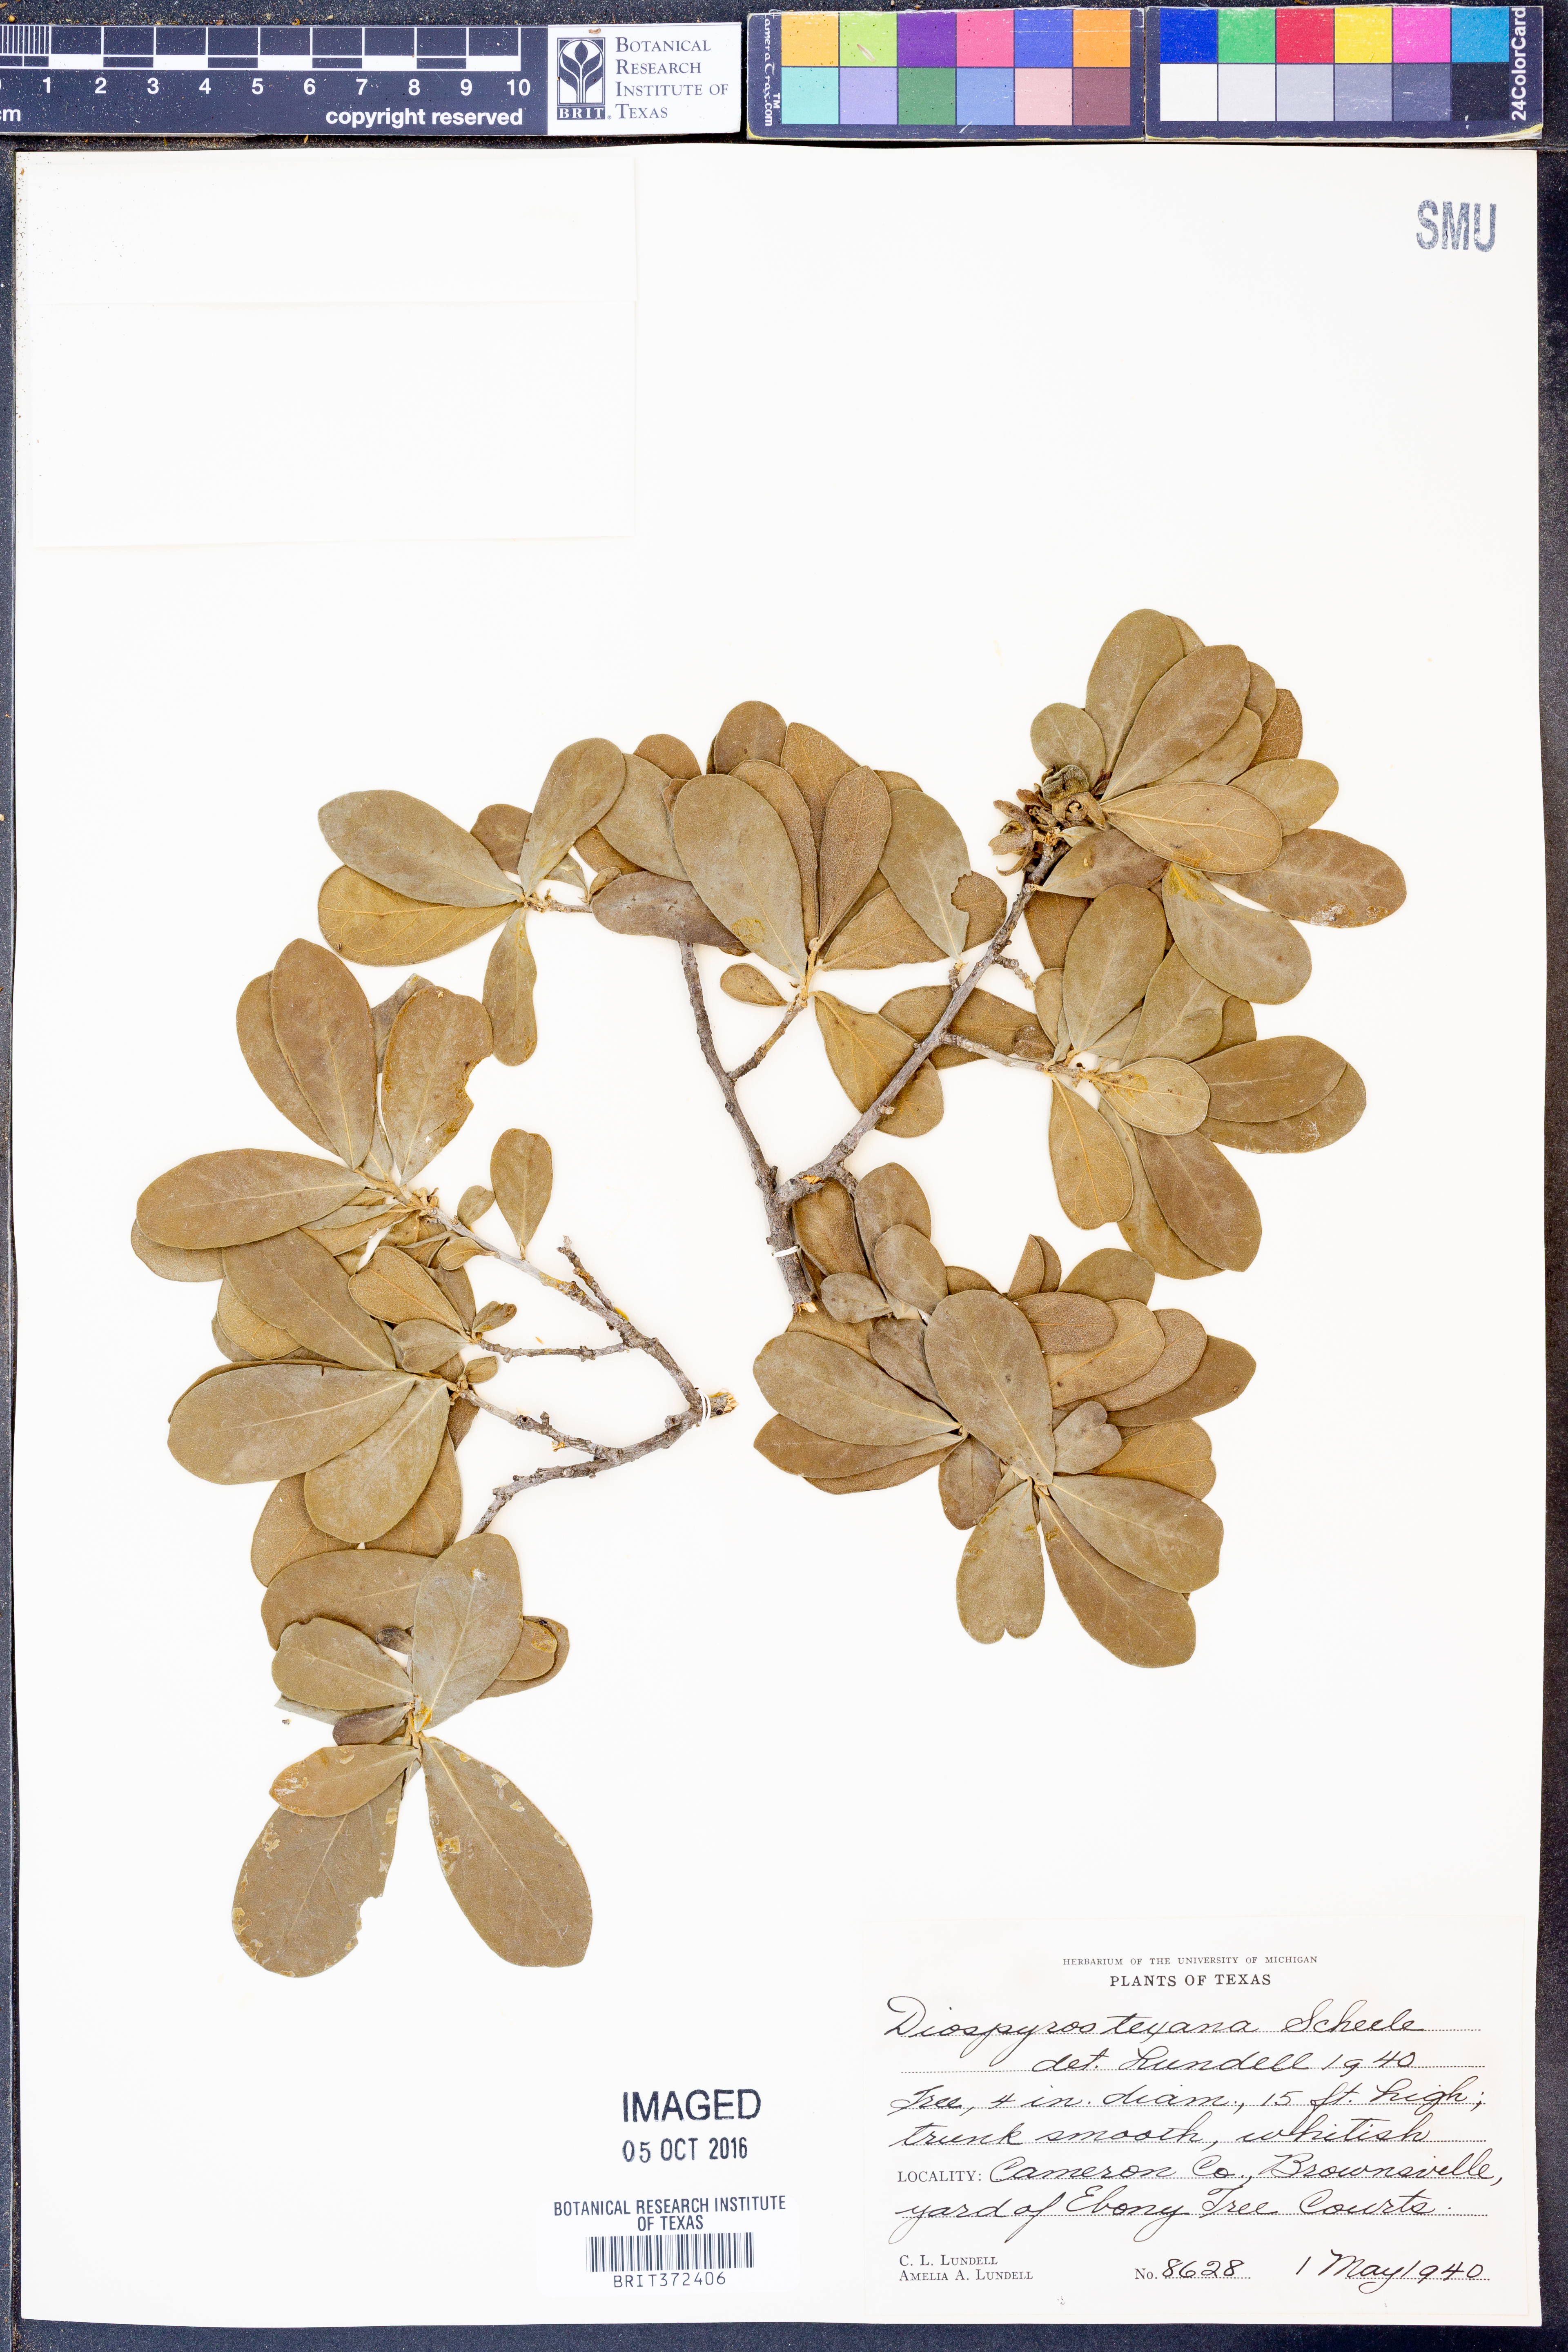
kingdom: Plantae
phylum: Tracheophyta
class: Magnoliopsida
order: Ericales
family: Ebenaceae
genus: Diospyros
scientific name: Diospyros texana
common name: Texas persimmon
